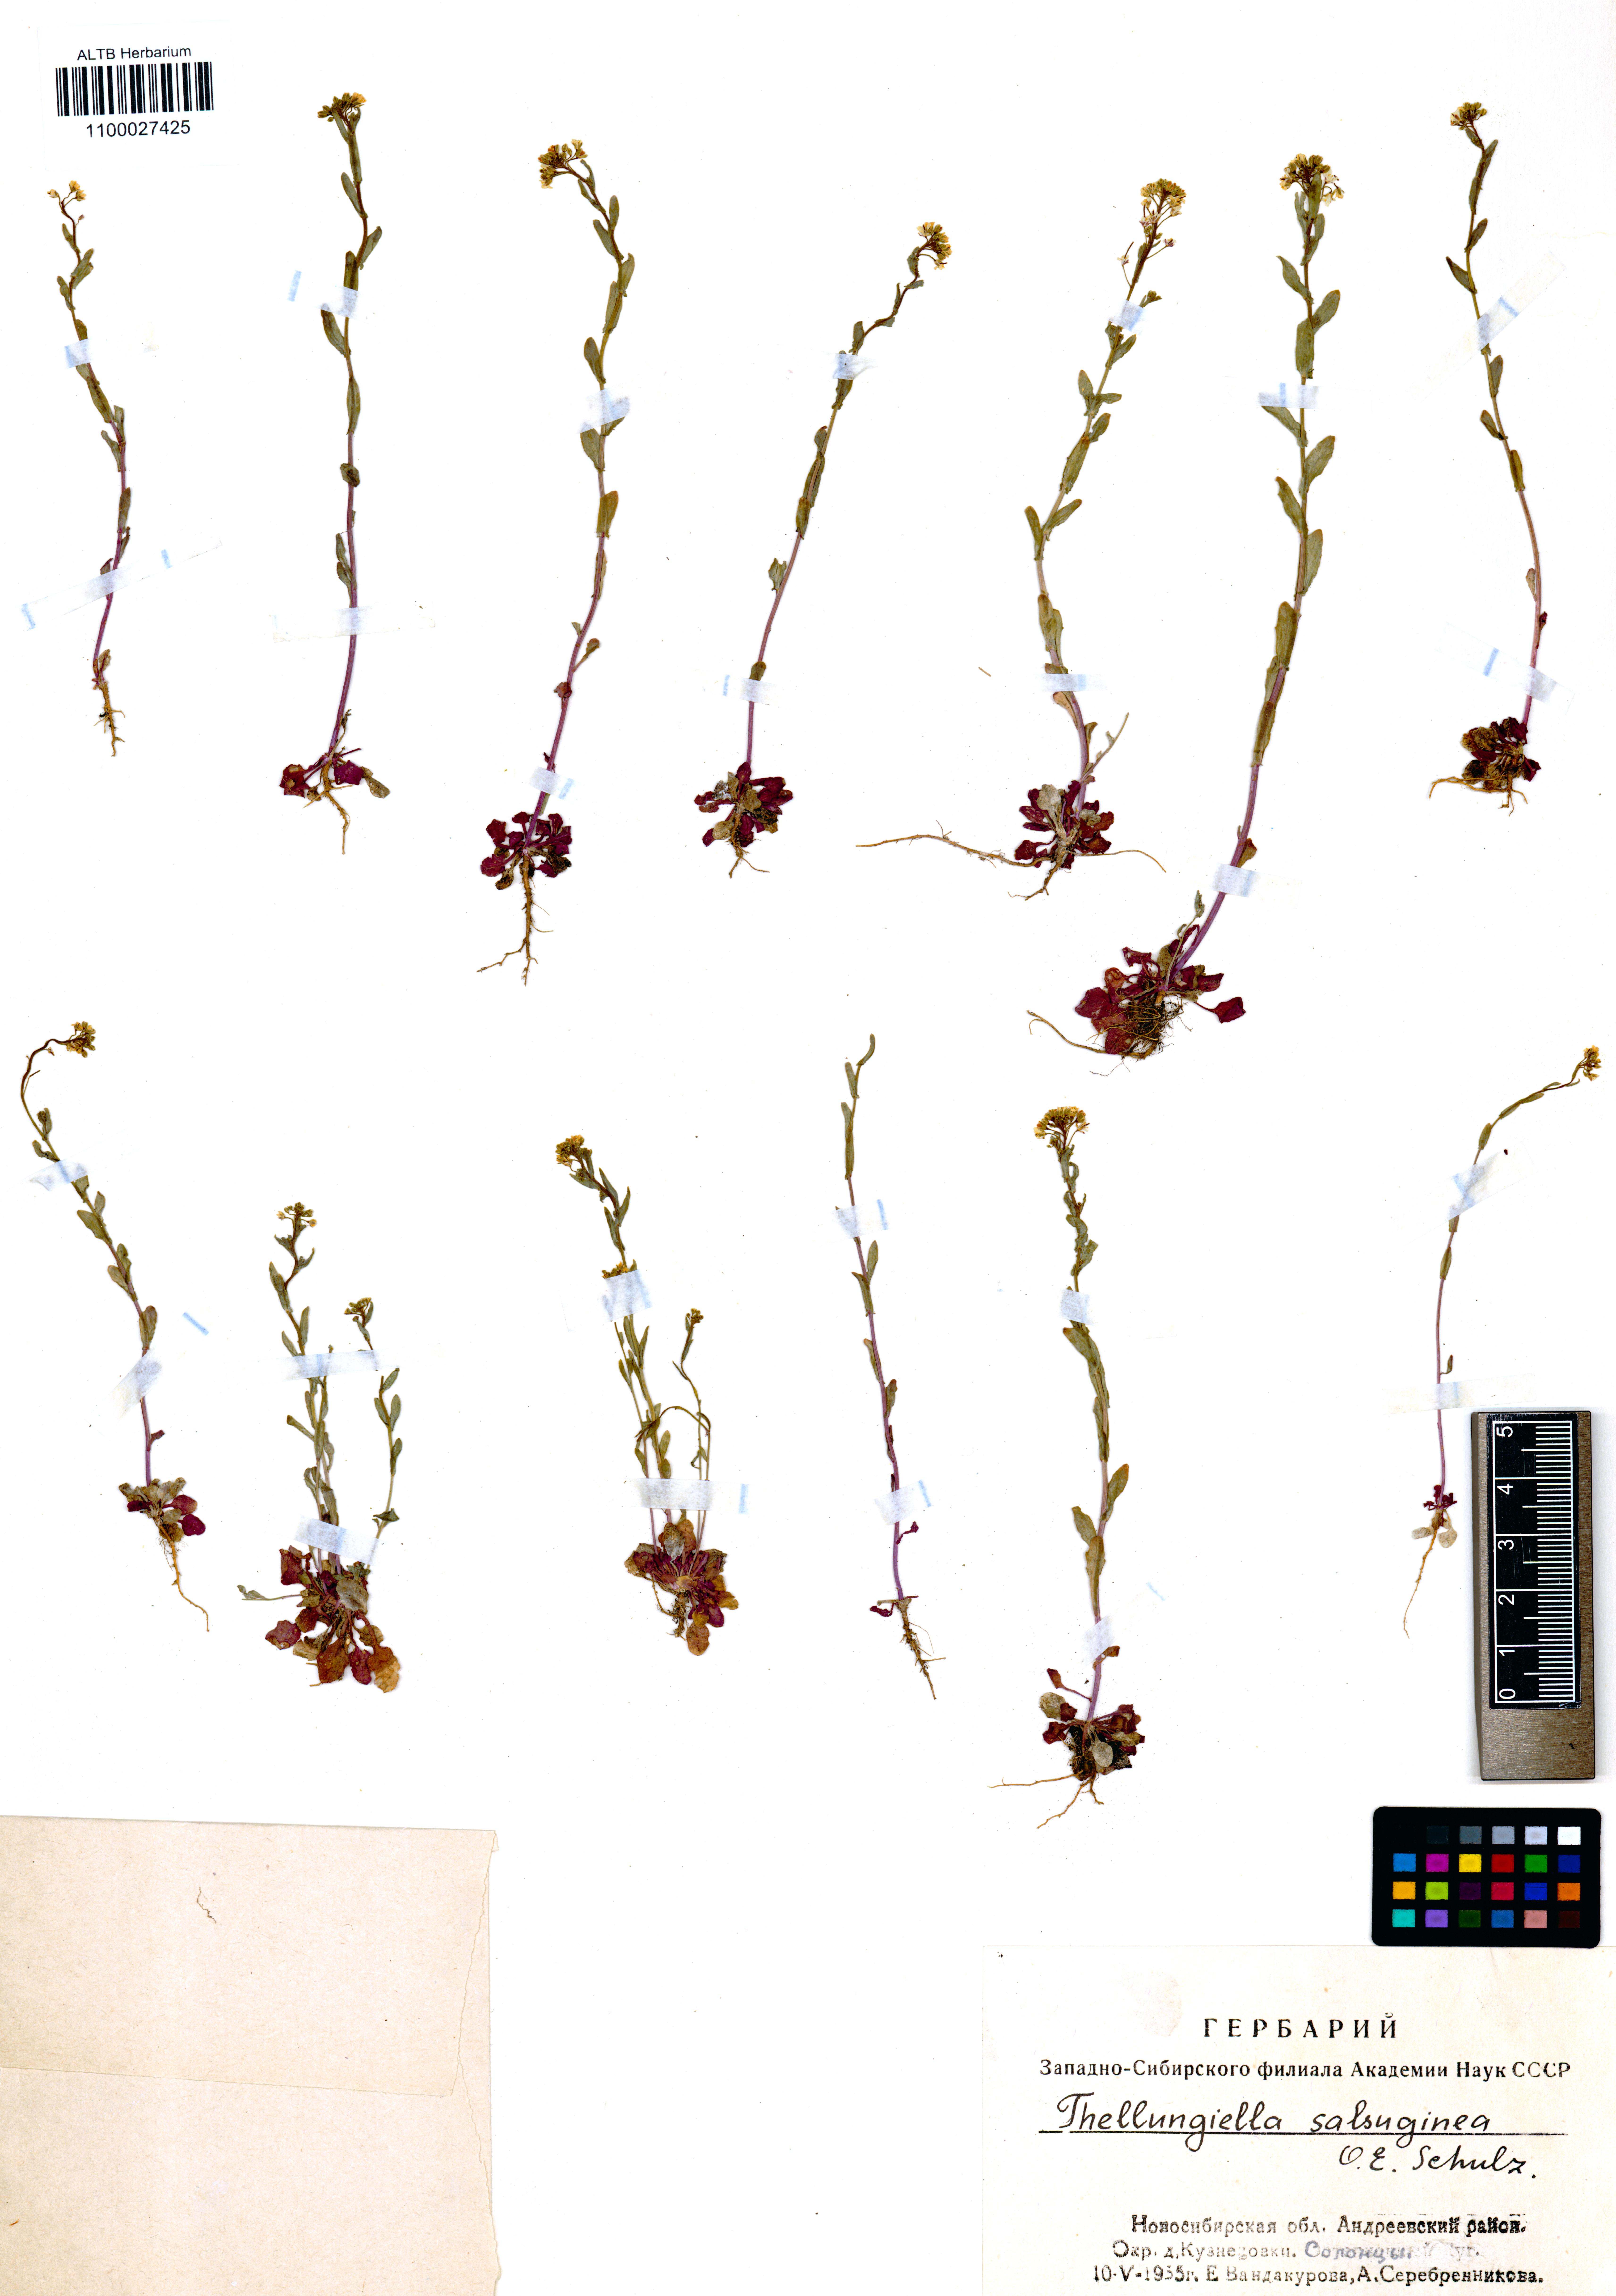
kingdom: Plantae
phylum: Tracheophyta
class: Magnoliopsida
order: Brassicales
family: Brassicaceae
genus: Eutrema
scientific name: Eutrema salsugineum
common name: Mouse-ear cress
